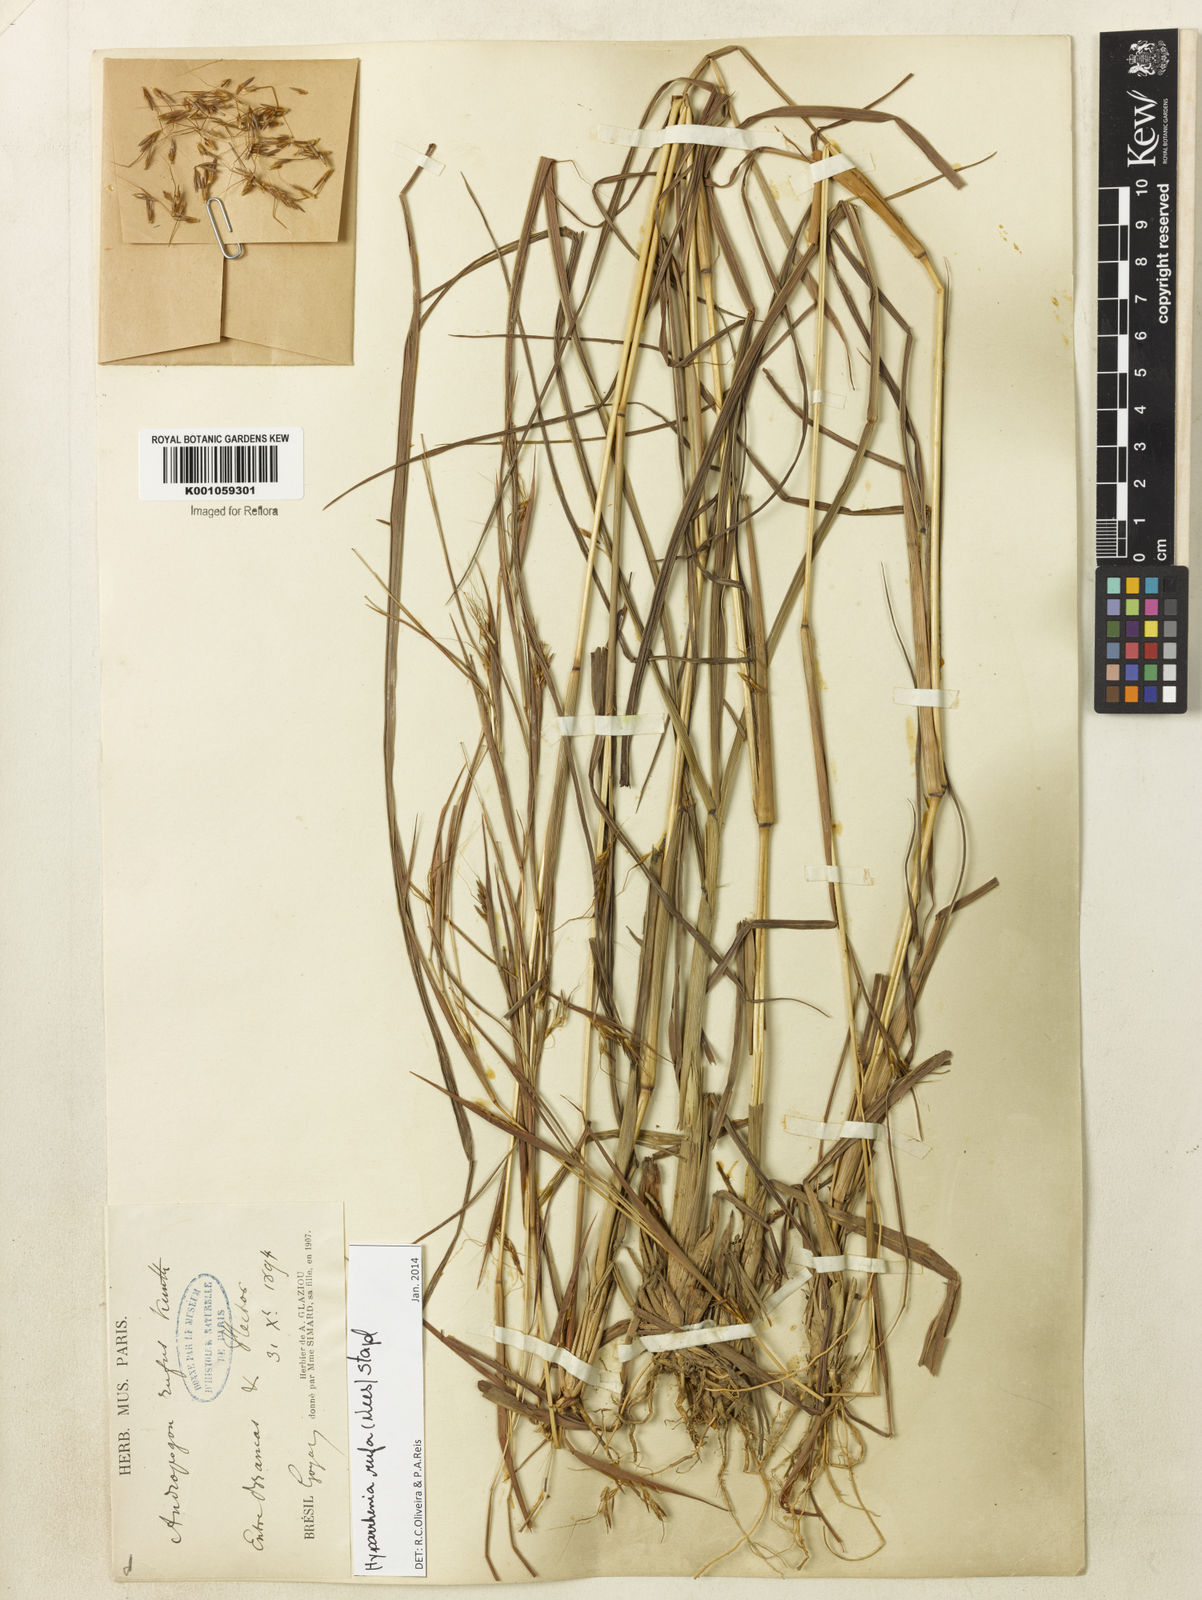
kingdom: Plantae
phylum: Tracheophyta
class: Liliopsida
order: Poales
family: Poaceae
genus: Hyparrhenia
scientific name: Hyparrhenia rufa
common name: Jaraguagrass
